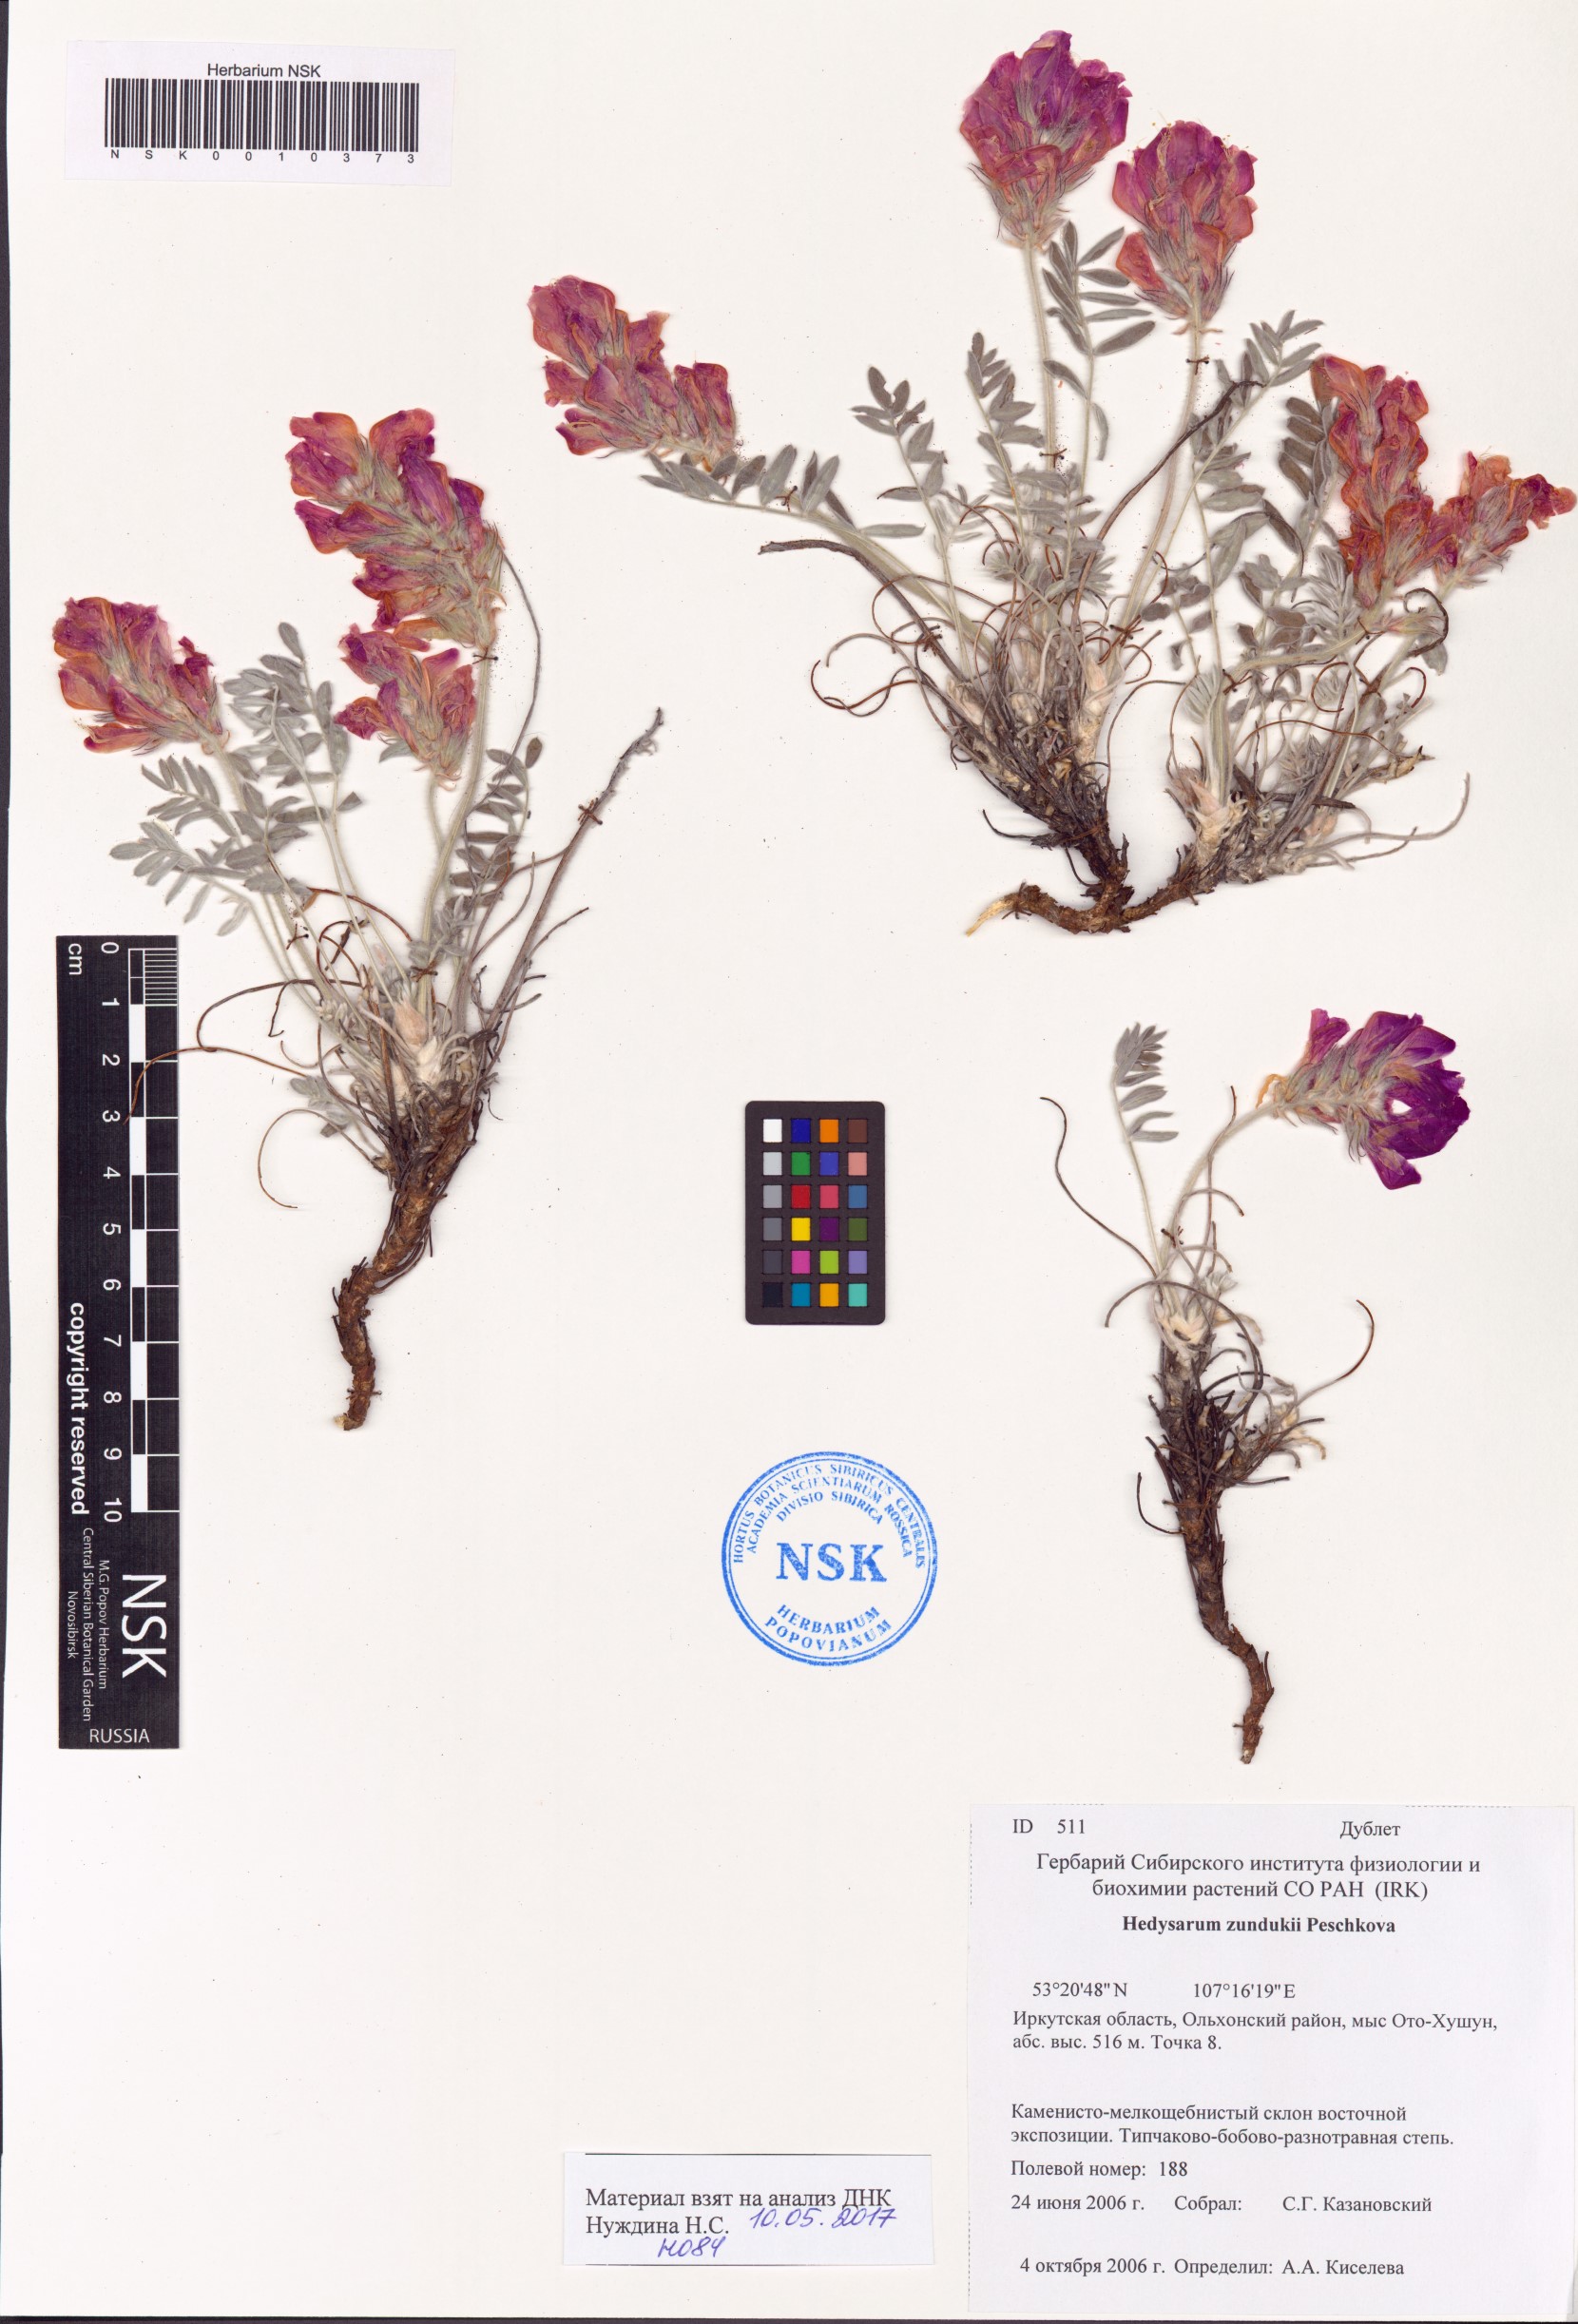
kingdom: Plantae
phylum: Tracheophyta
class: Magnoliopsida
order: Fabales
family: Fabaceae
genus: Hedysarum
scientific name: Hedysarum zundukii
